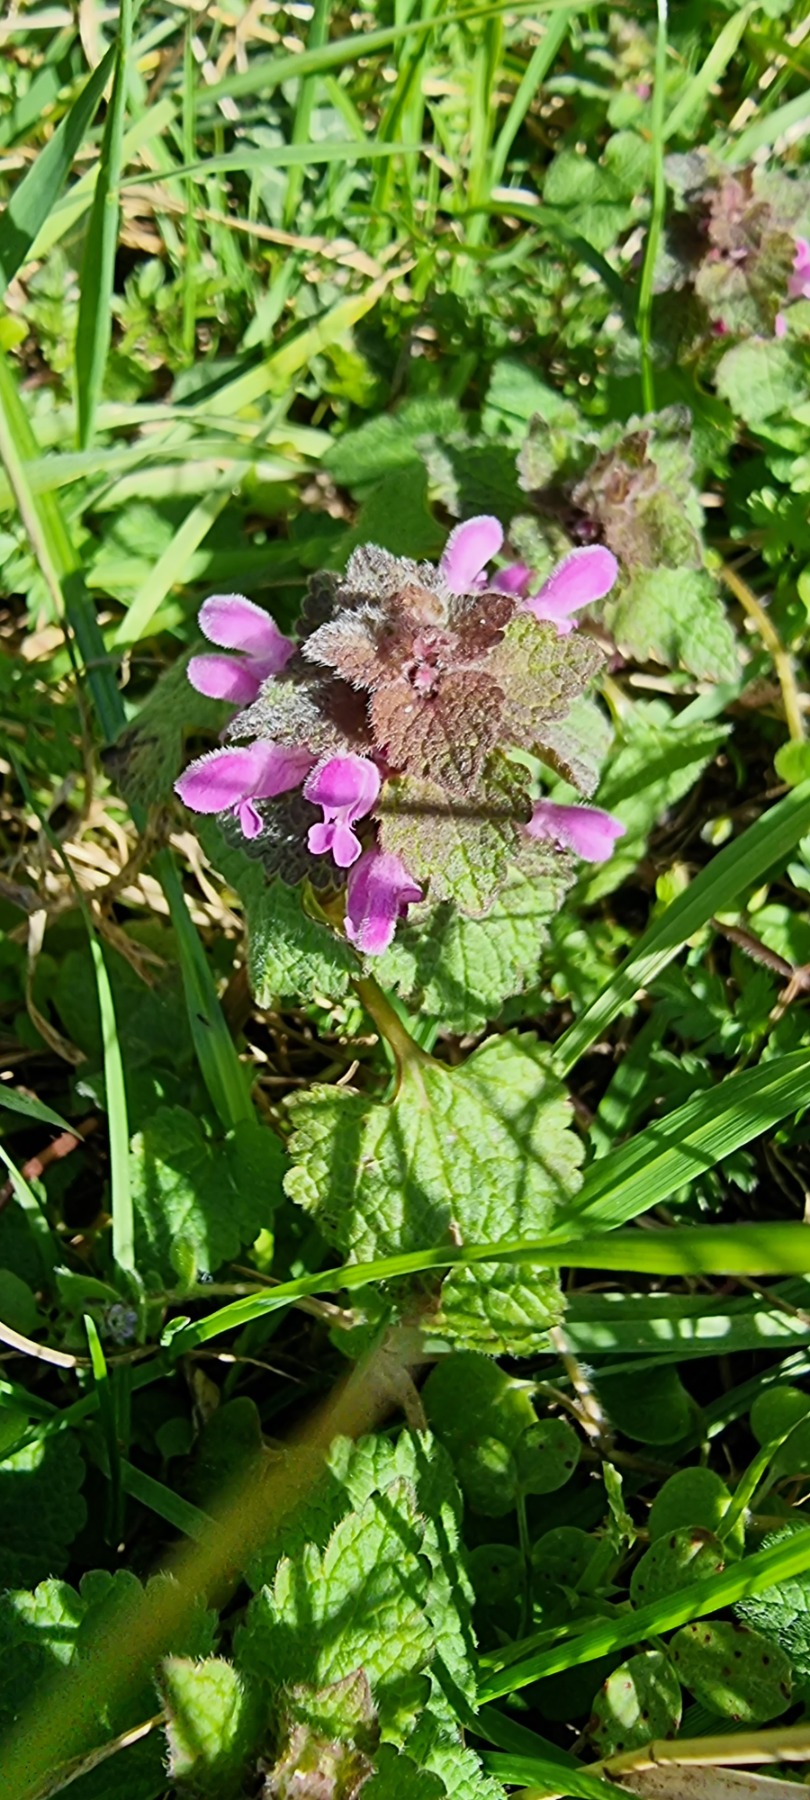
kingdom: Plantae
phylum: Tracheophyta
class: Magnoliopsida
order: Lamiales
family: Lamiaceae
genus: Lamium
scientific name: Lamium purpureum
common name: Rød tvetand
